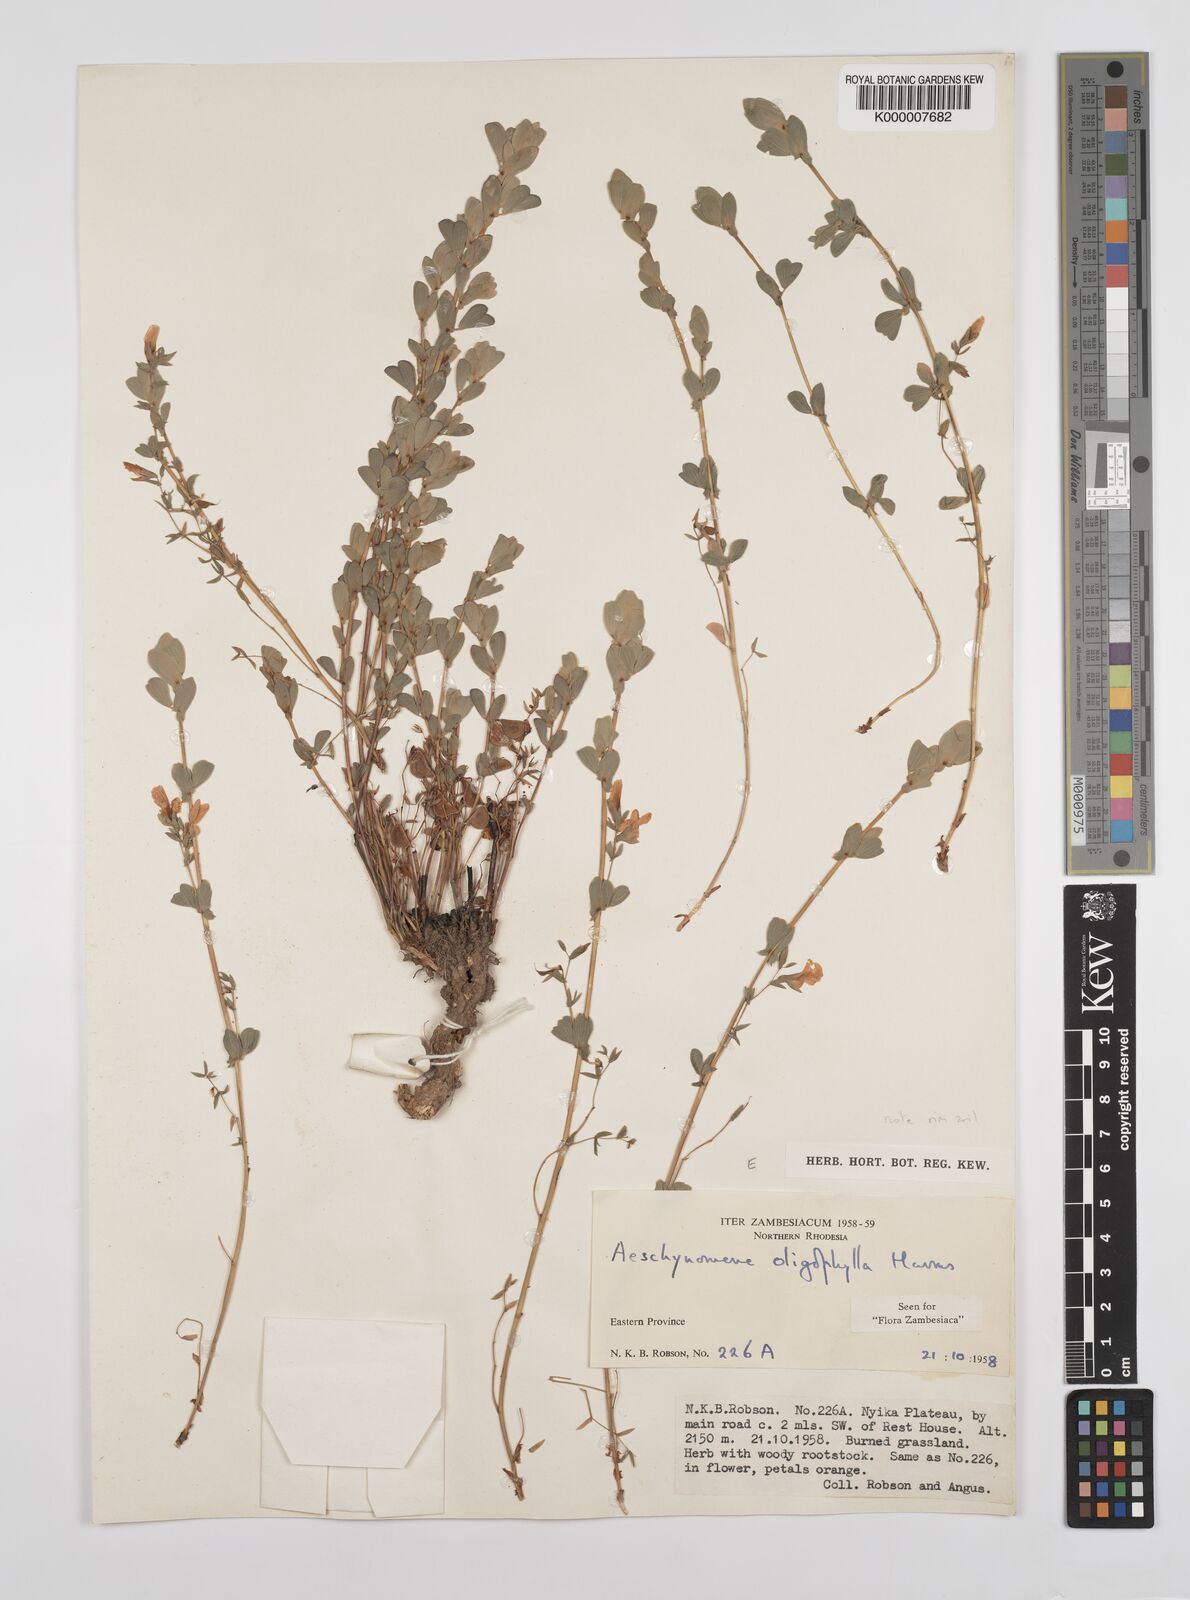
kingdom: Plantae
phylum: Tracheophyta
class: Magnoliopsida
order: Fabales
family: Fabaceae
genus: Aeschynomene
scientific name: Aeschynomene oligophylla
